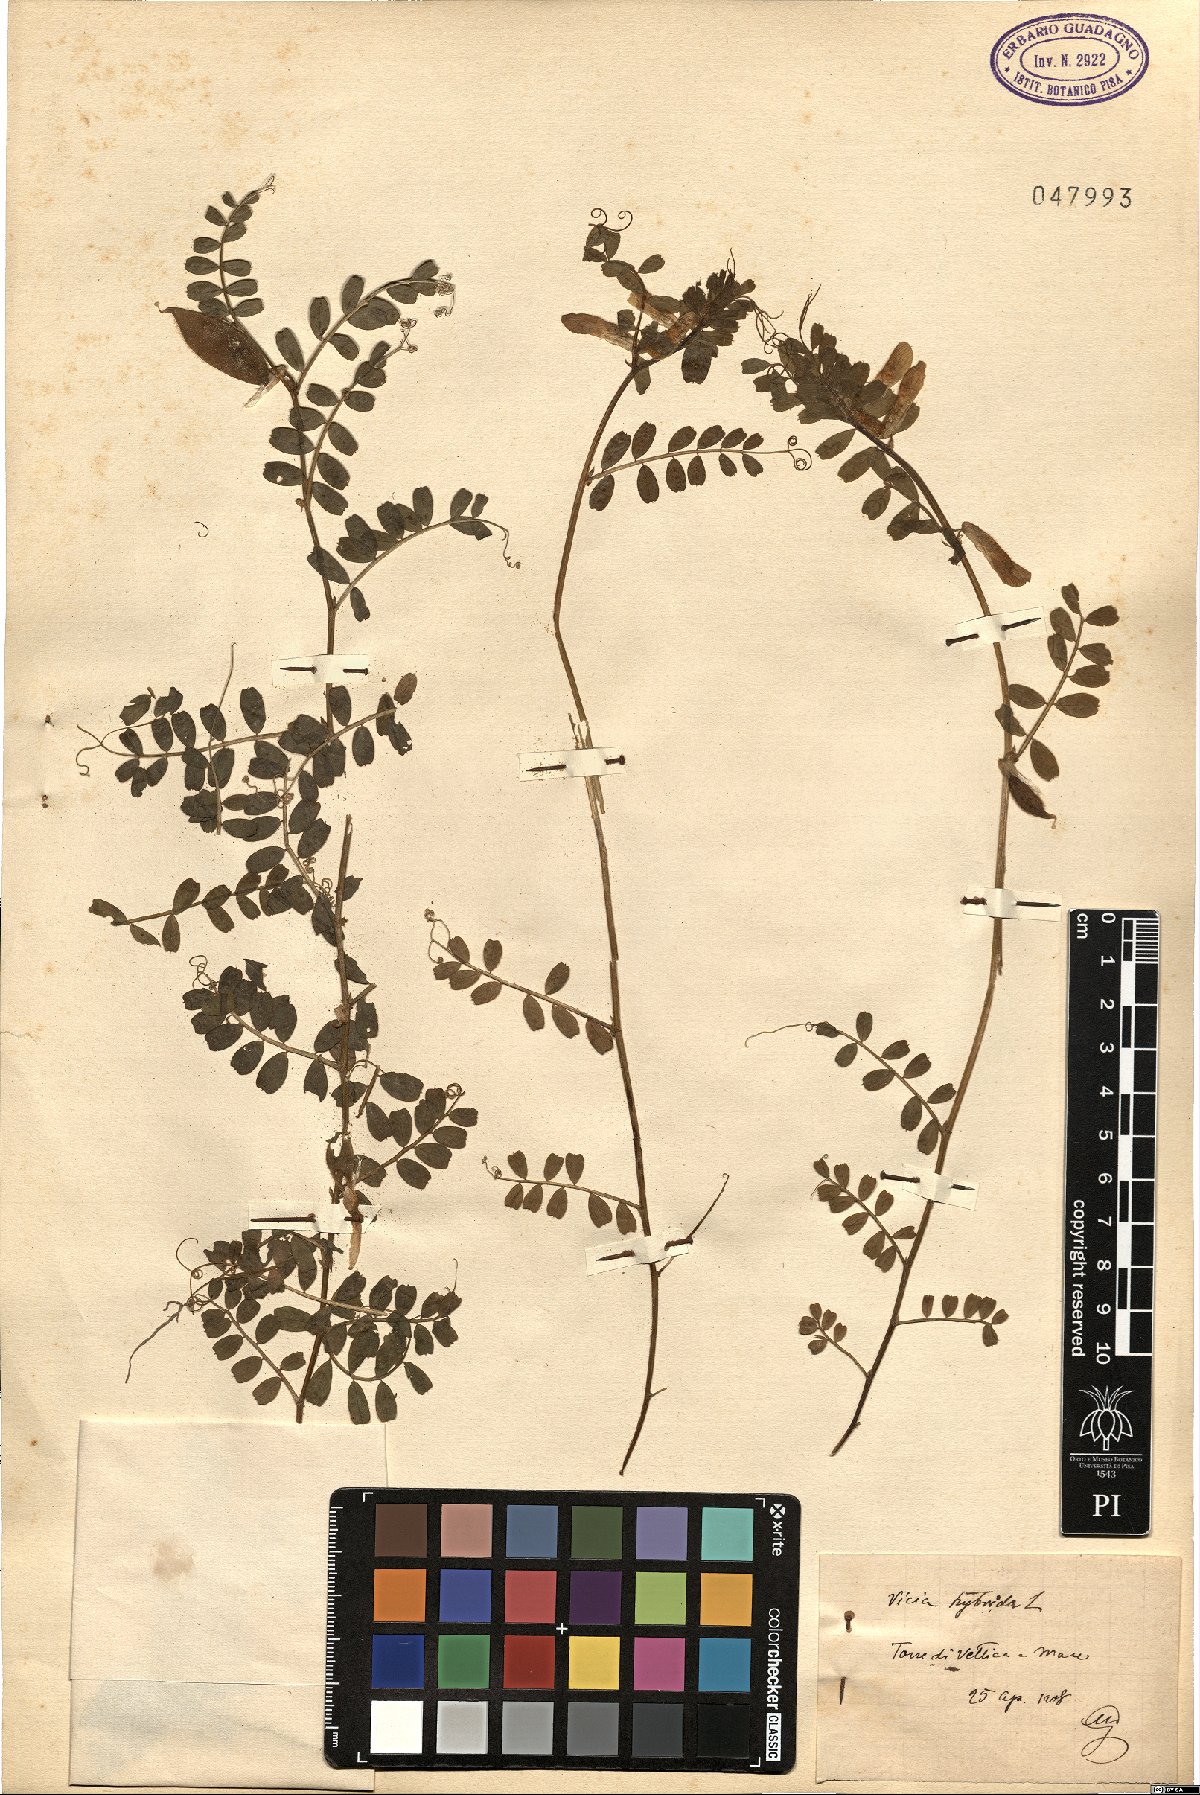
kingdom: Plantae
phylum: Tracheophyta
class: Magnoliopsida
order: Fabales
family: Fabaceae
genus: Vicia
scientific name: Vicia hybrida
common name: Hairy yellow vetch
